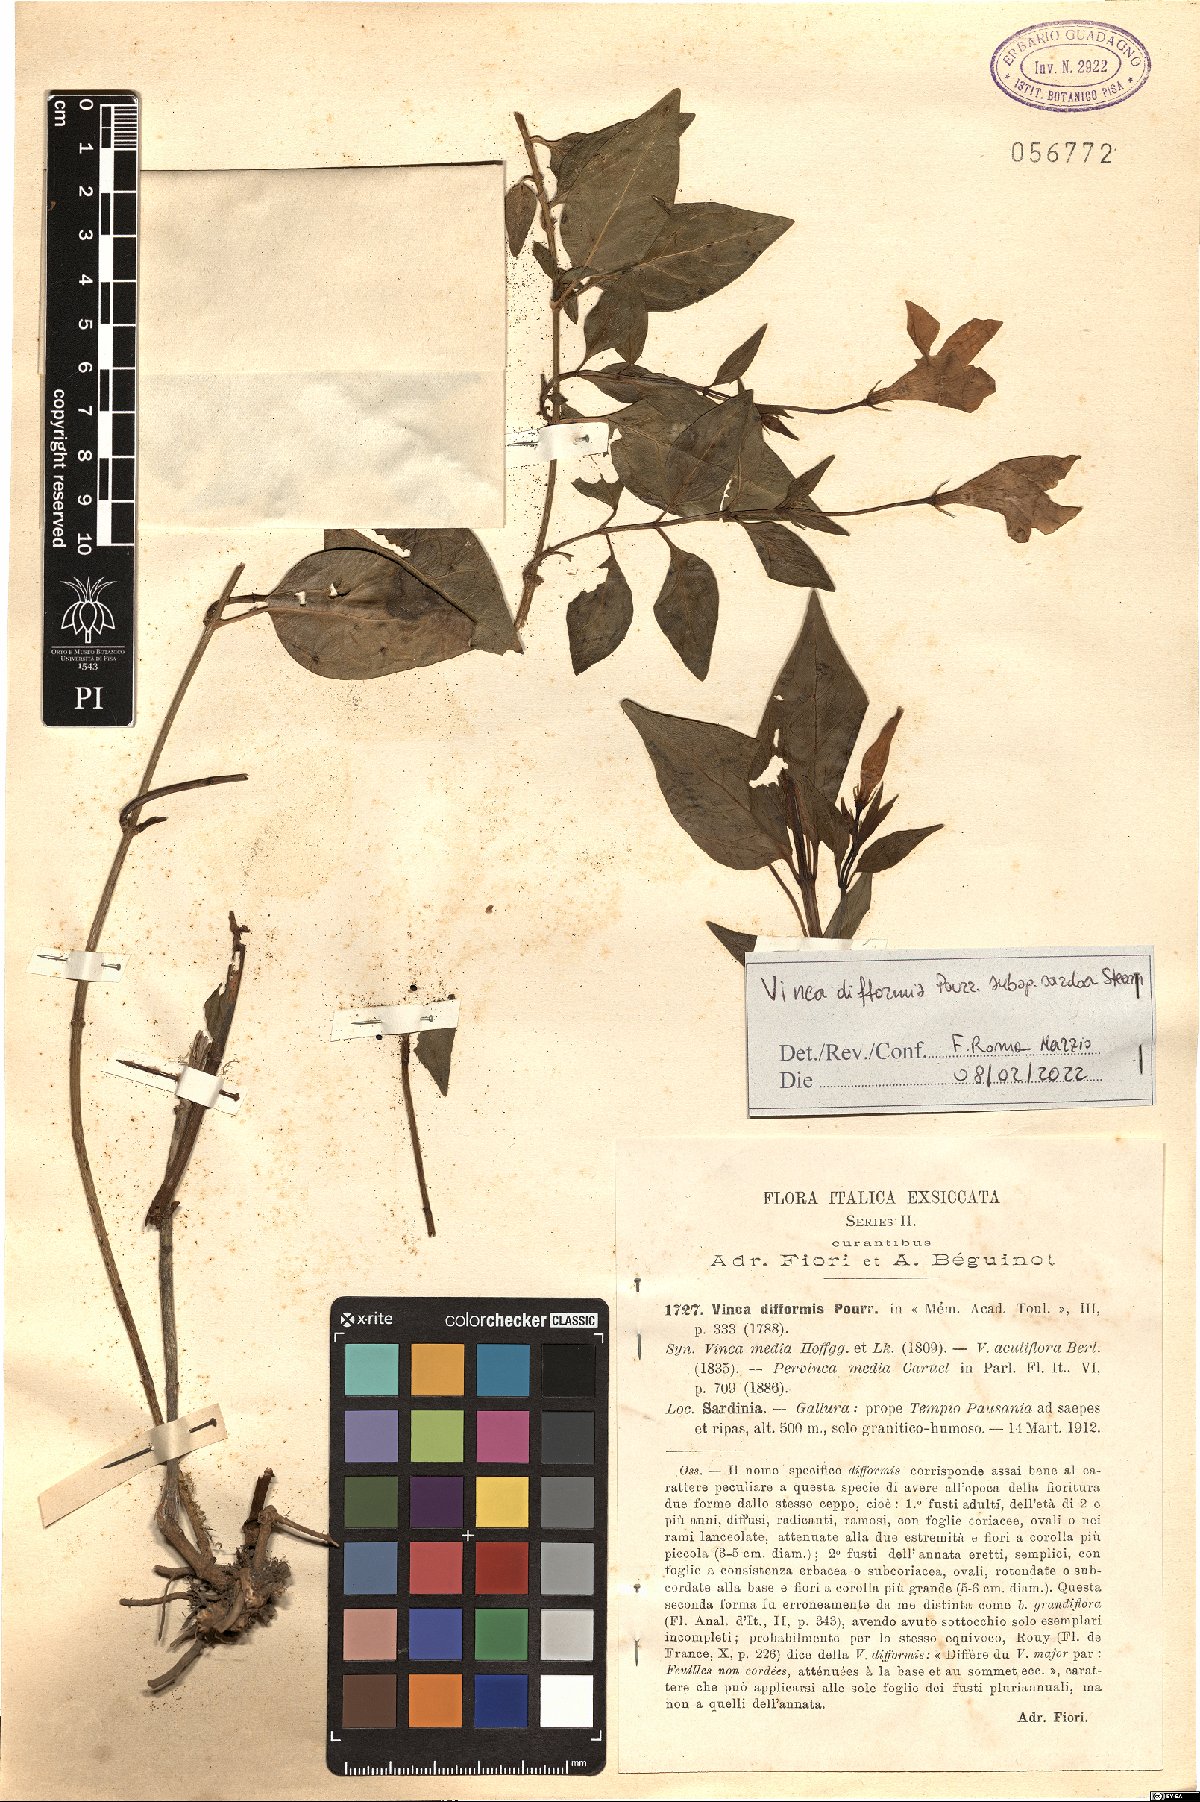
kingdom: Plantae
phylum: Tracheophyta
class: Magnoliopsida
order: Gentianales
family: Apocynaceae
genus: Vinca
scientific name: Vinca difformis
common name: Intermediate periwinkle
